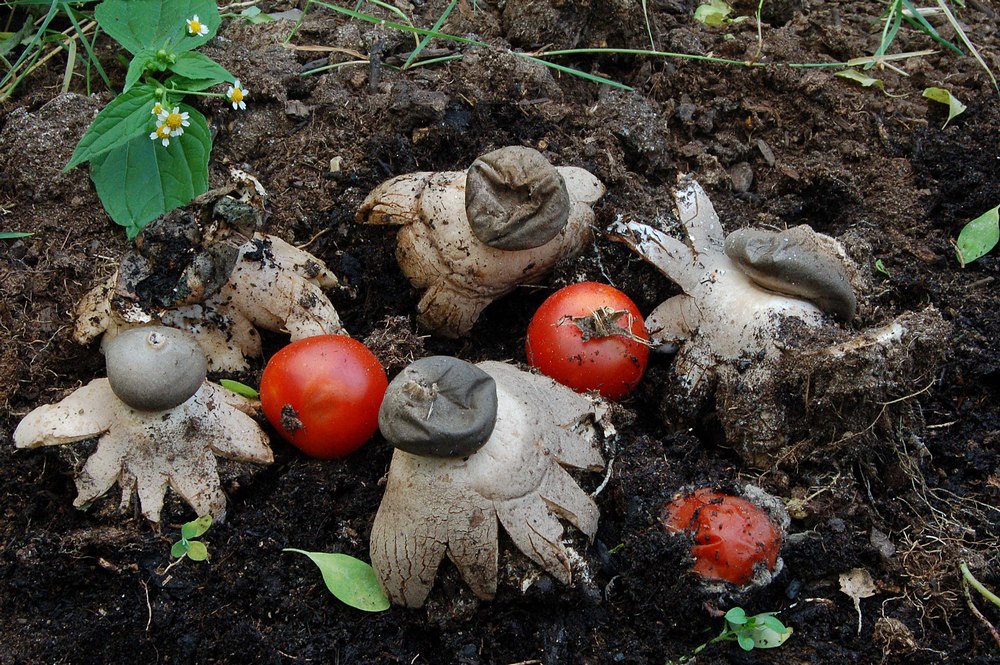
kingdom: Fungi
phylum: Basidiomycota
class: Agaricomycetes
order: Geastrales
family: Geastraceae
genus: Geastrum
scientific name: Geastrum coronatum
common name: mørk stjernebold
